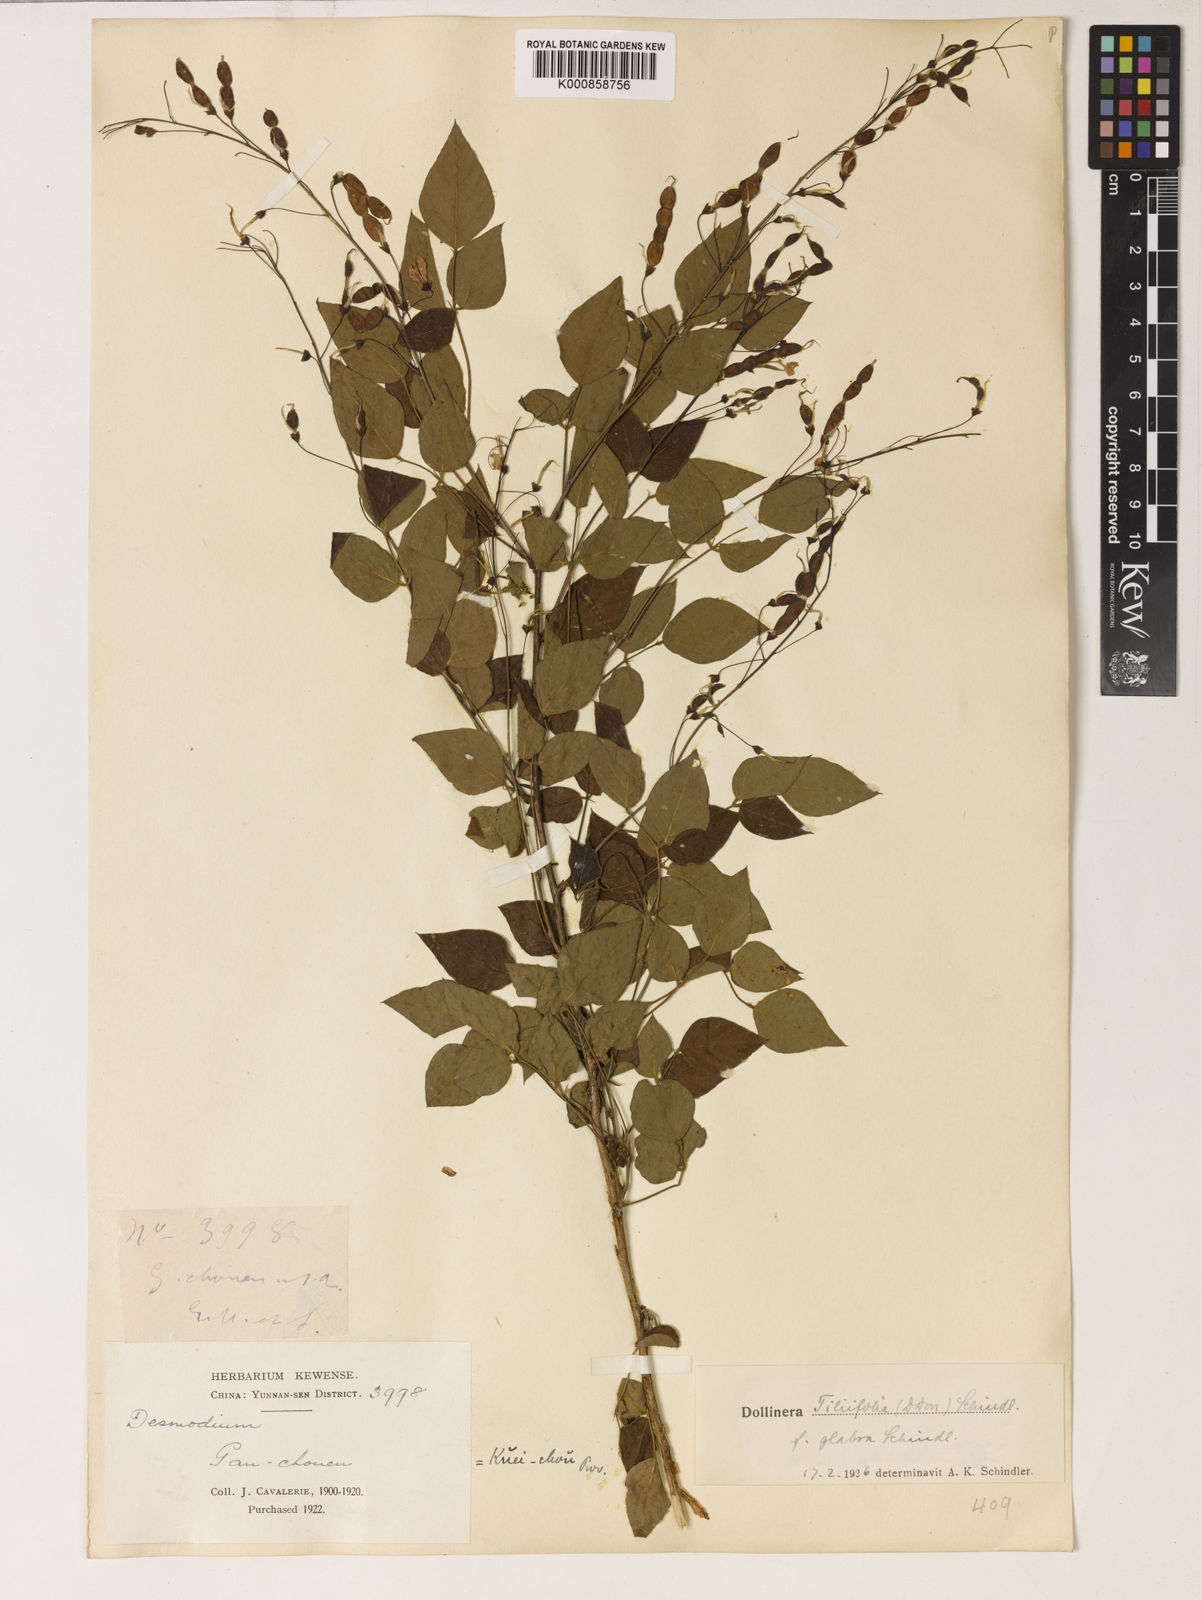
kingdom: Plantae
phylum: Tracheophyta
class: Magnoliopsida
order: Fabales
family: Fabaceae
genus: Sunhangia
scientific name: Sunhangia elegans
